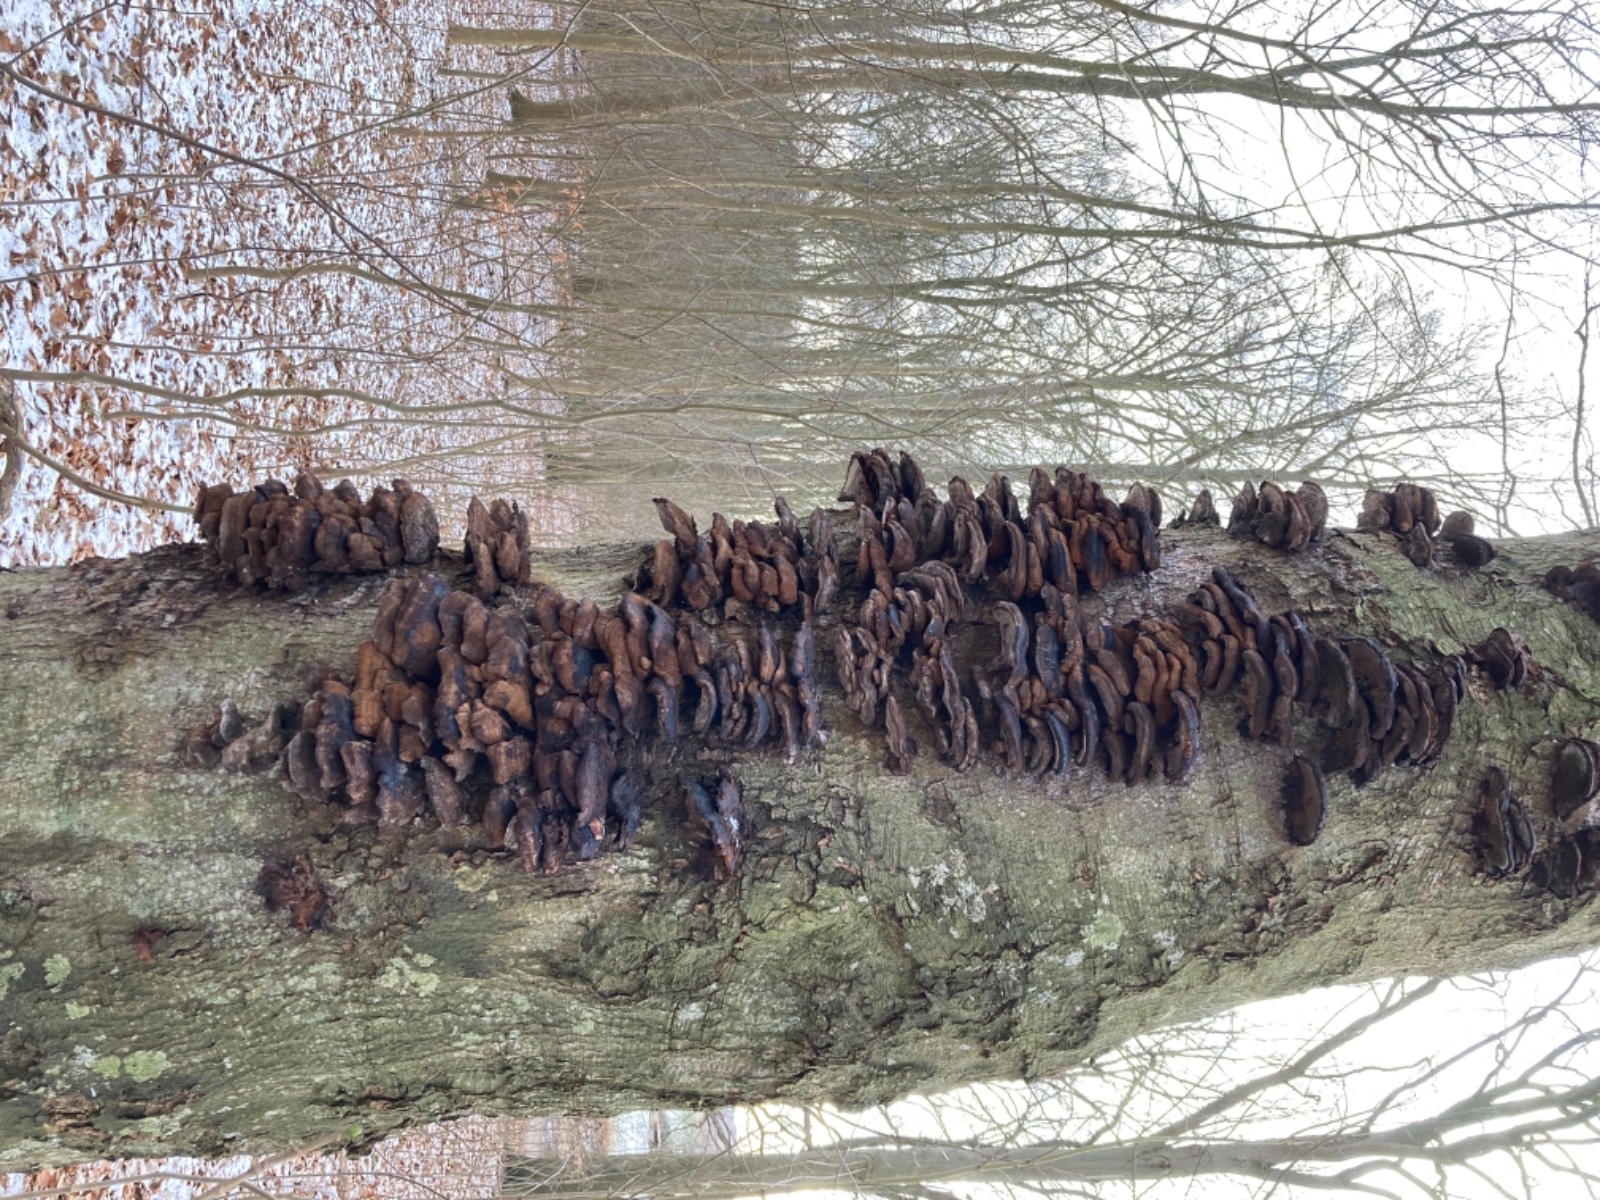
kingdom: Fungi
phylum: Basidiomycota
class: Agaricomycetes
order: Hymenochaetales
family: Hymenochaetaceae
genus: Inonotus
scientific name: Inonotus cuticularis
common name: kroghåret spejlporesvamp
